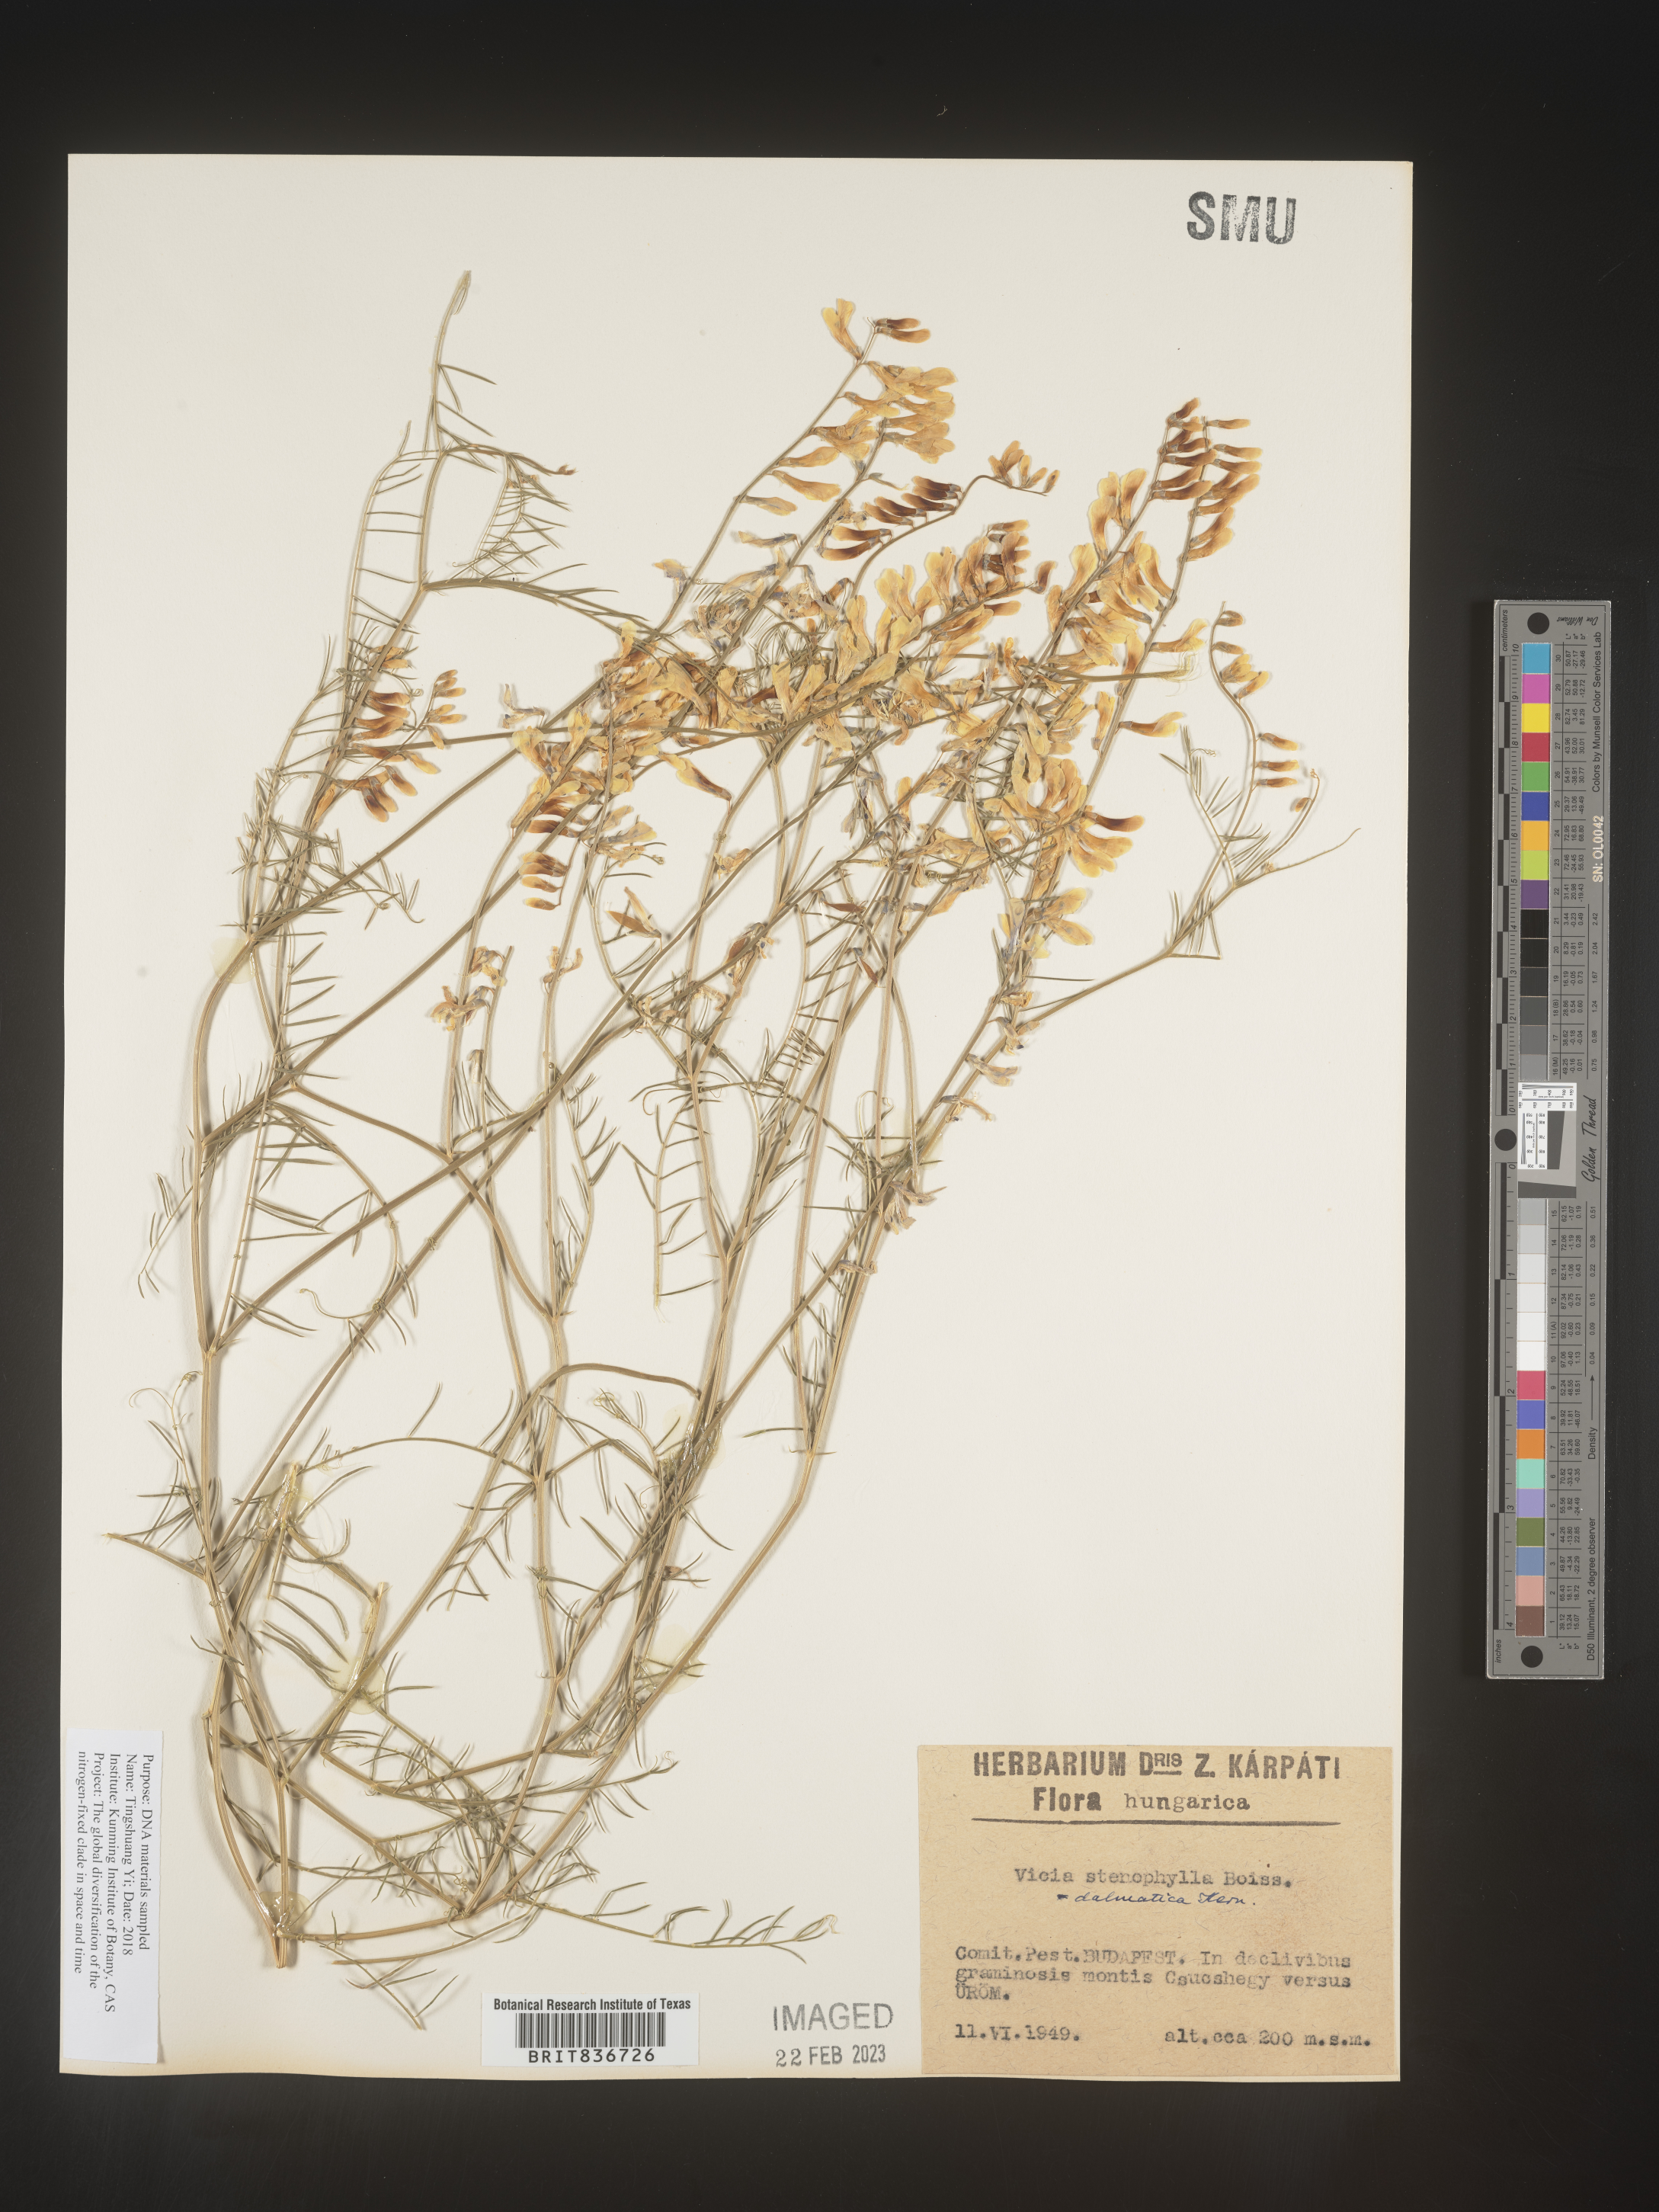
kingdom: Plantae
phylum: Tracheophyta
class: Magnoliopsida
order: Fabales
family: Fabaceae
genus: Vicia
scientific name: Vicia
